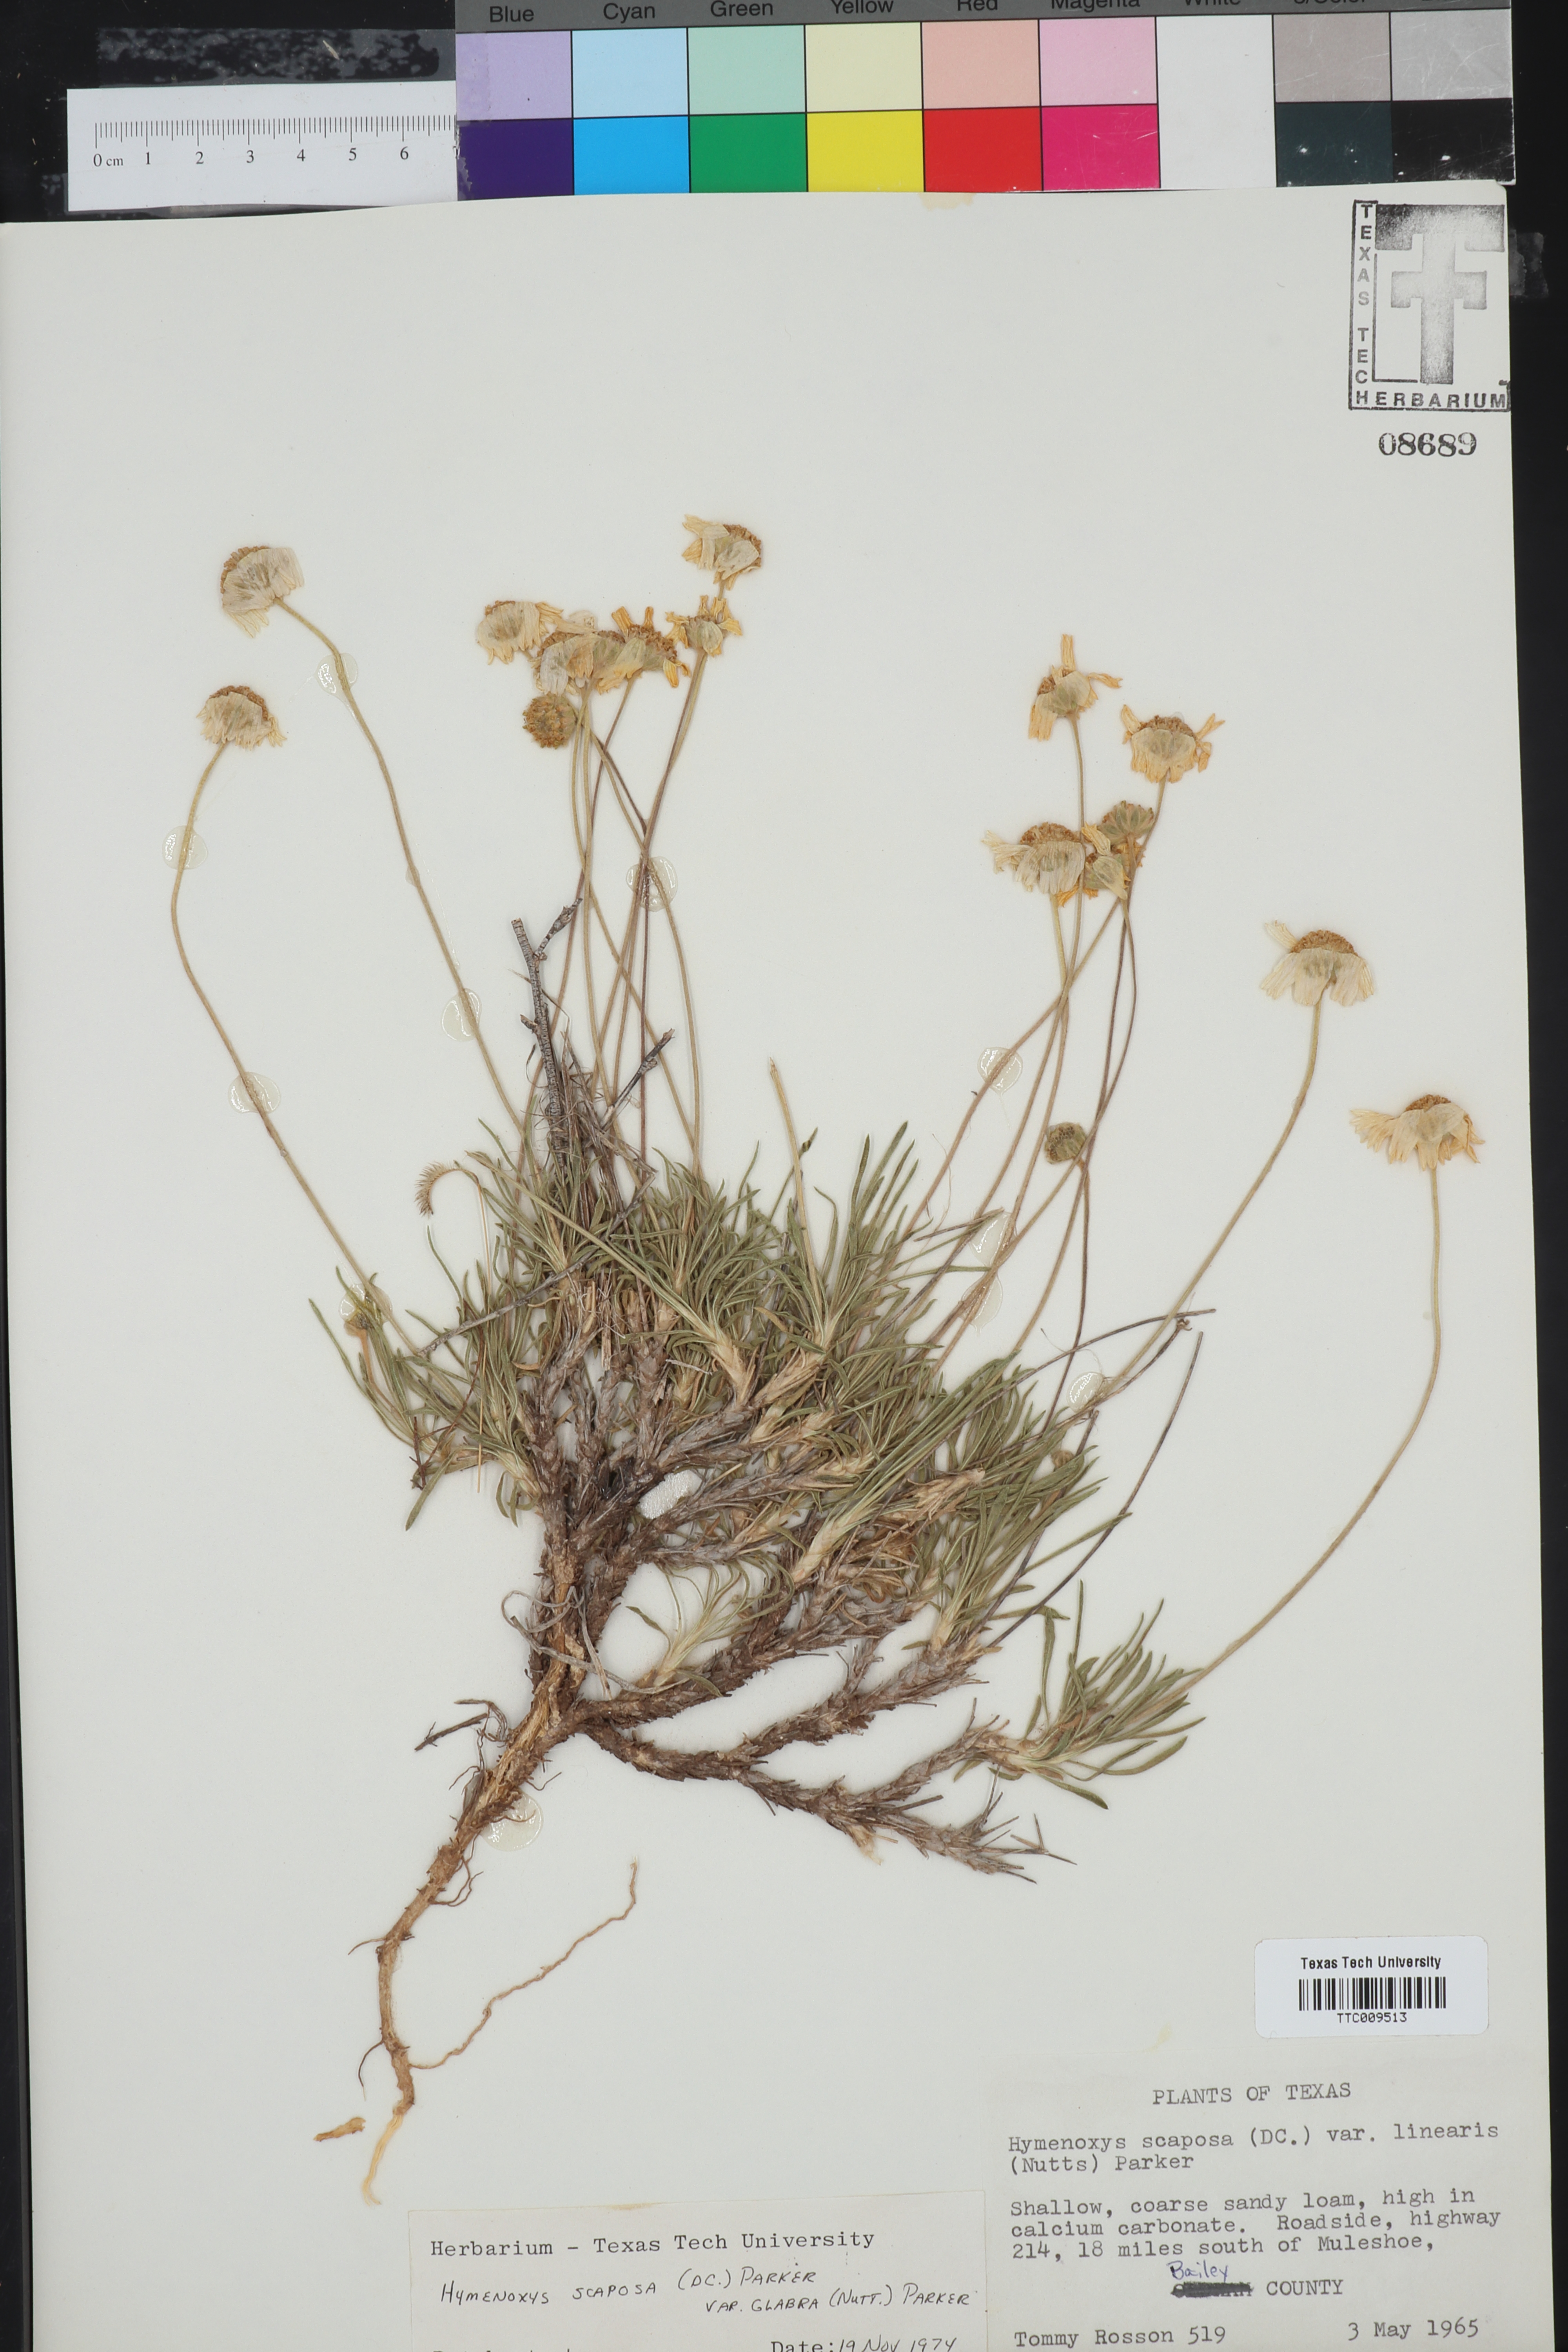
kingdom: Plantae
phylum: Tracheophyta
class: Magnoliopsida
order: Asterales
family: Asteraceae
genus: Tetraneuris
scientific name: Tetraneuris scaposa
